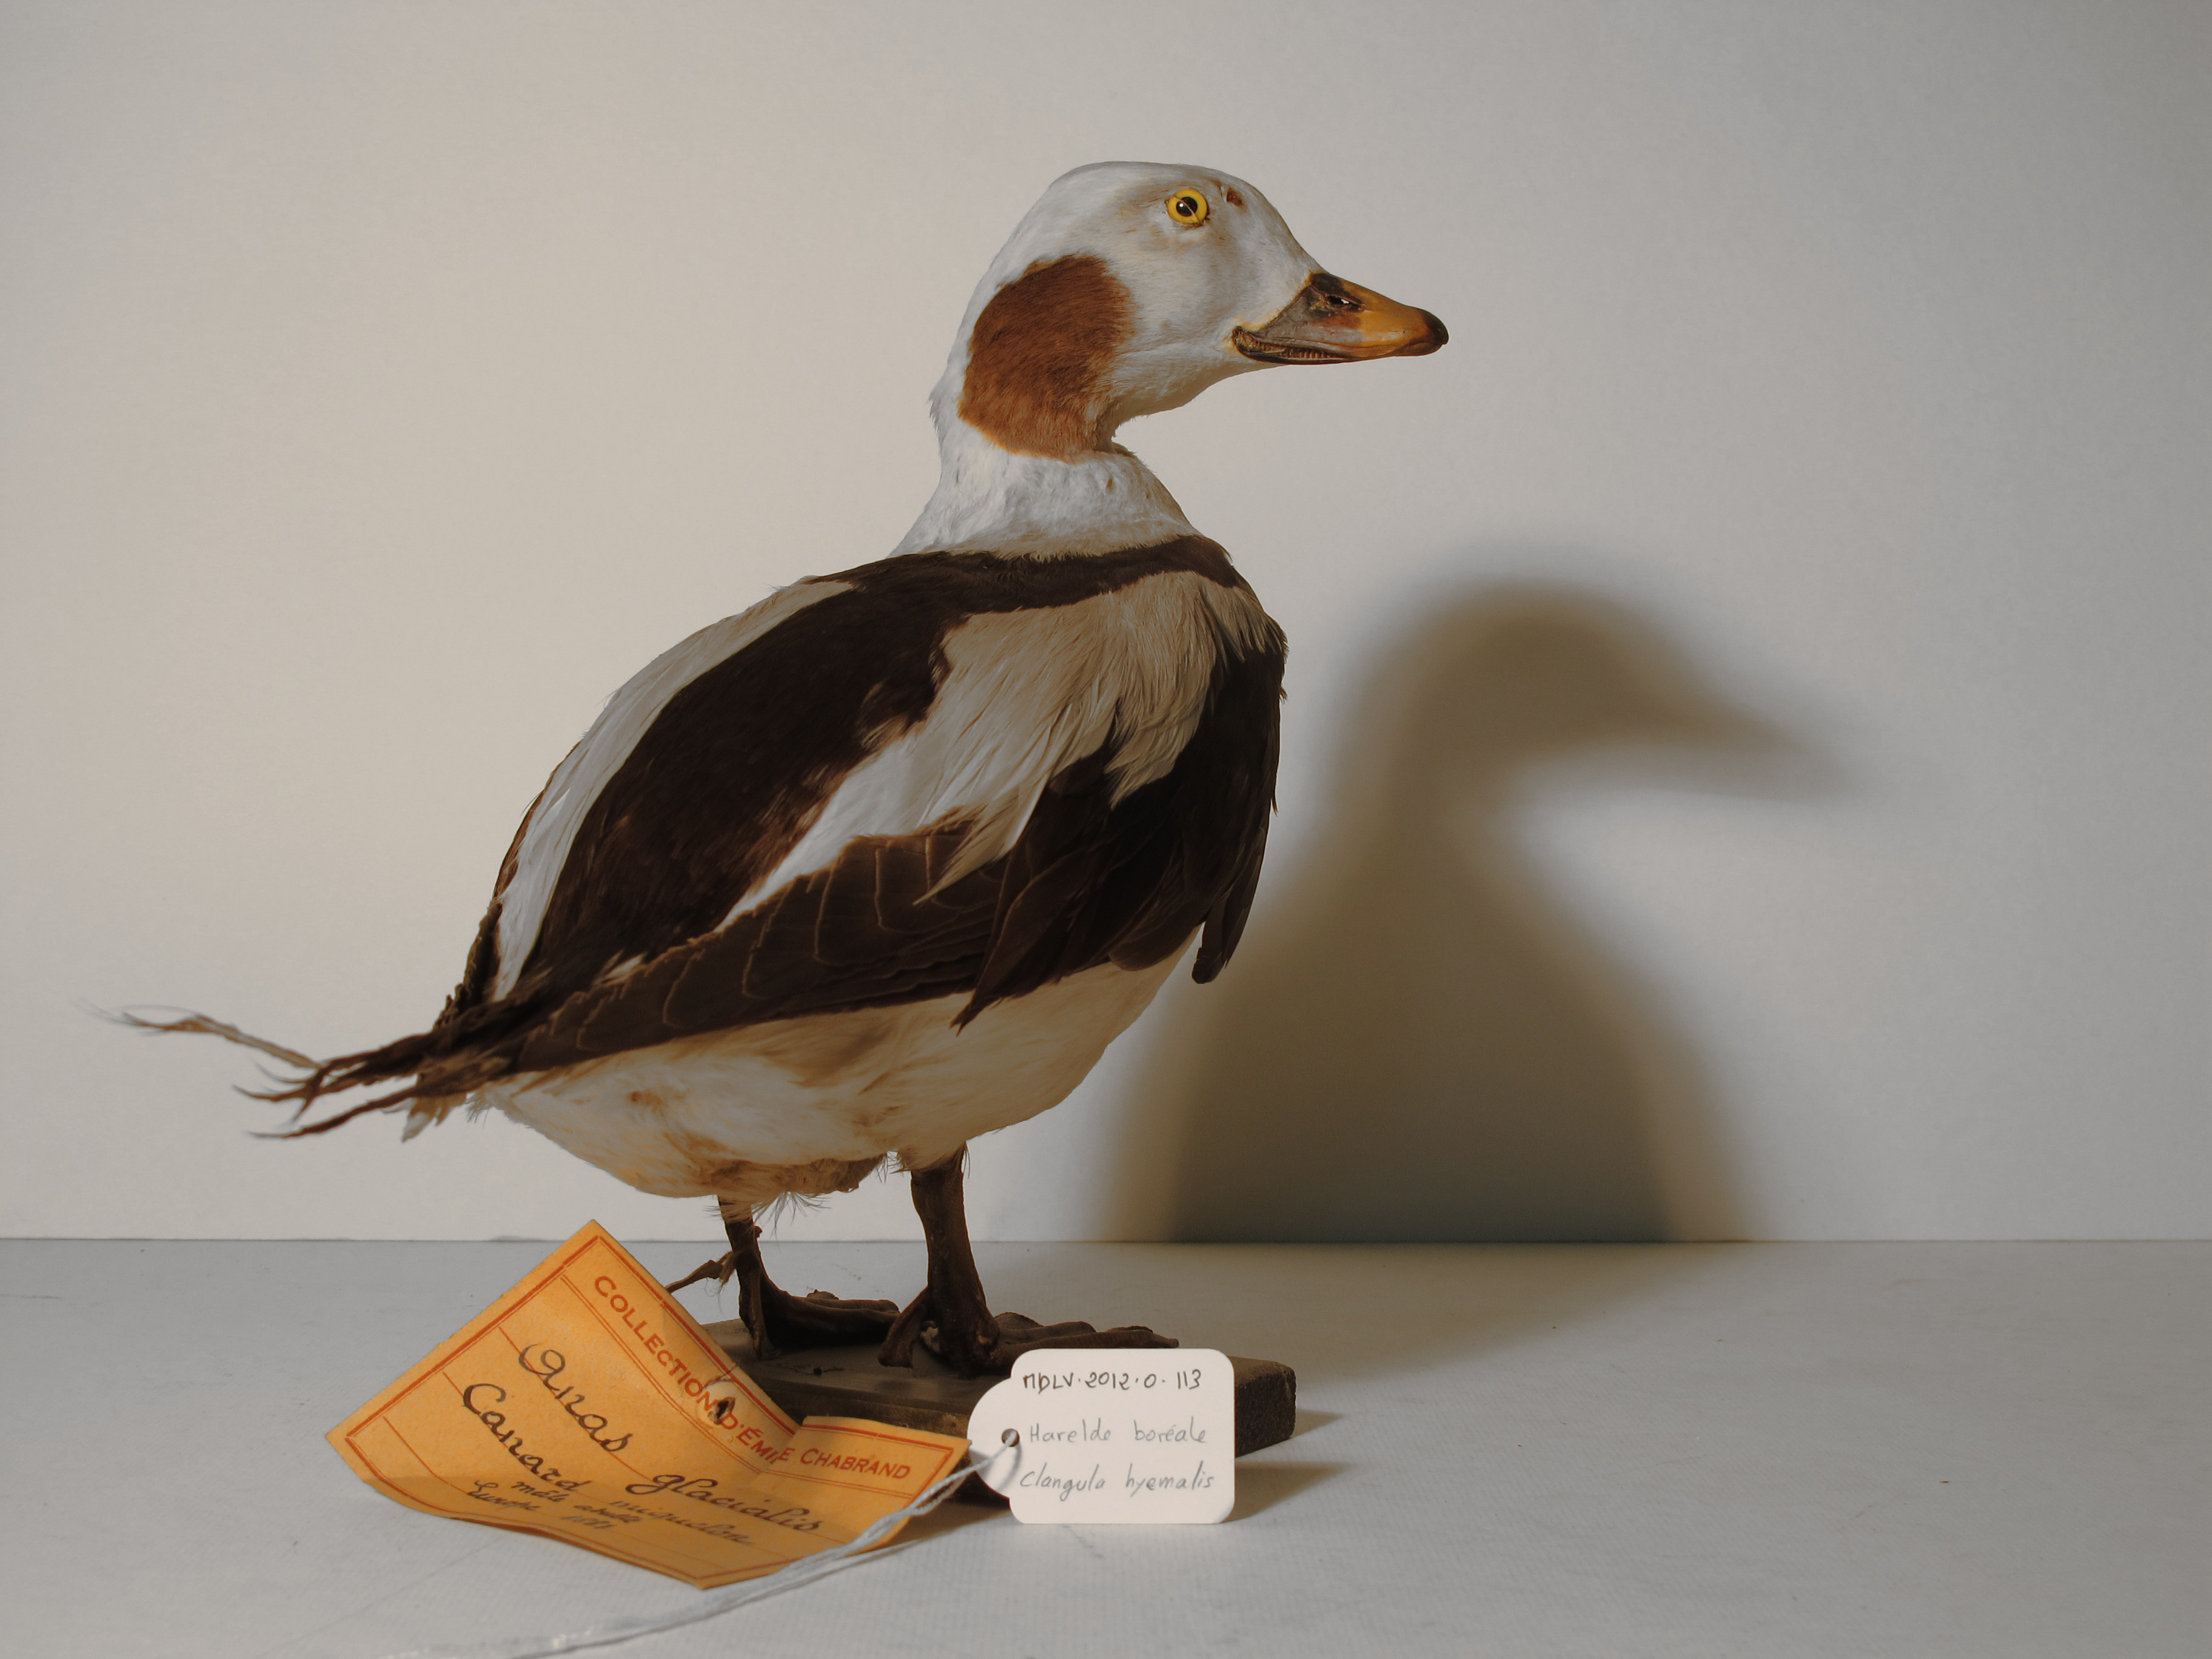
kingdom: Animalia
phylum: Chordata
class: Aves
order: Anseriformes
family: Anatidae
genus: Clangula
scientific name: Clangula hyemalis
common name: Long-tailed Duck
